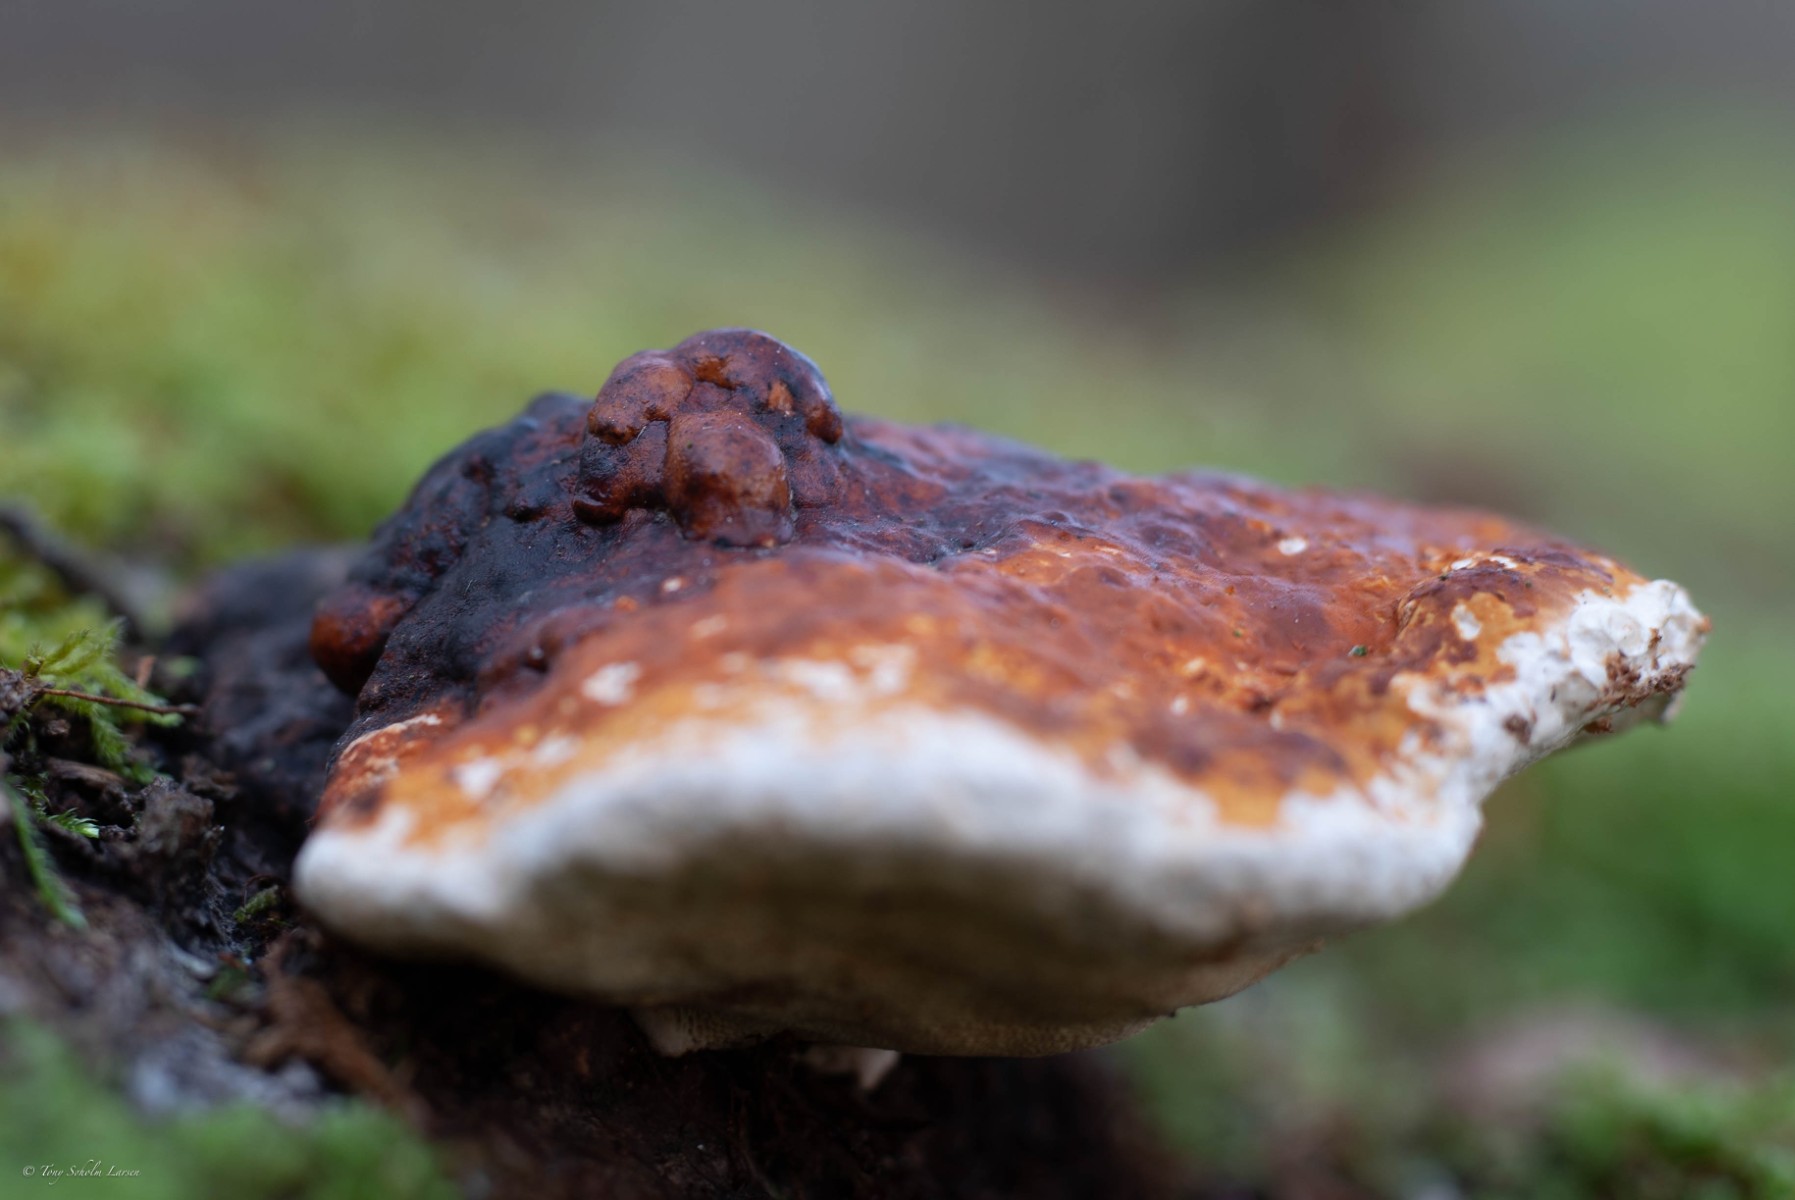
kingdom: Fungi
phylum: Basidiomycota
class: Agaricomycetes
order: Polyporales
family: Fomitopsidaceae
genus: Fomitopsis
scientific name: Fomitopsis pinicola
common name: randbæltet hovporesvamp
